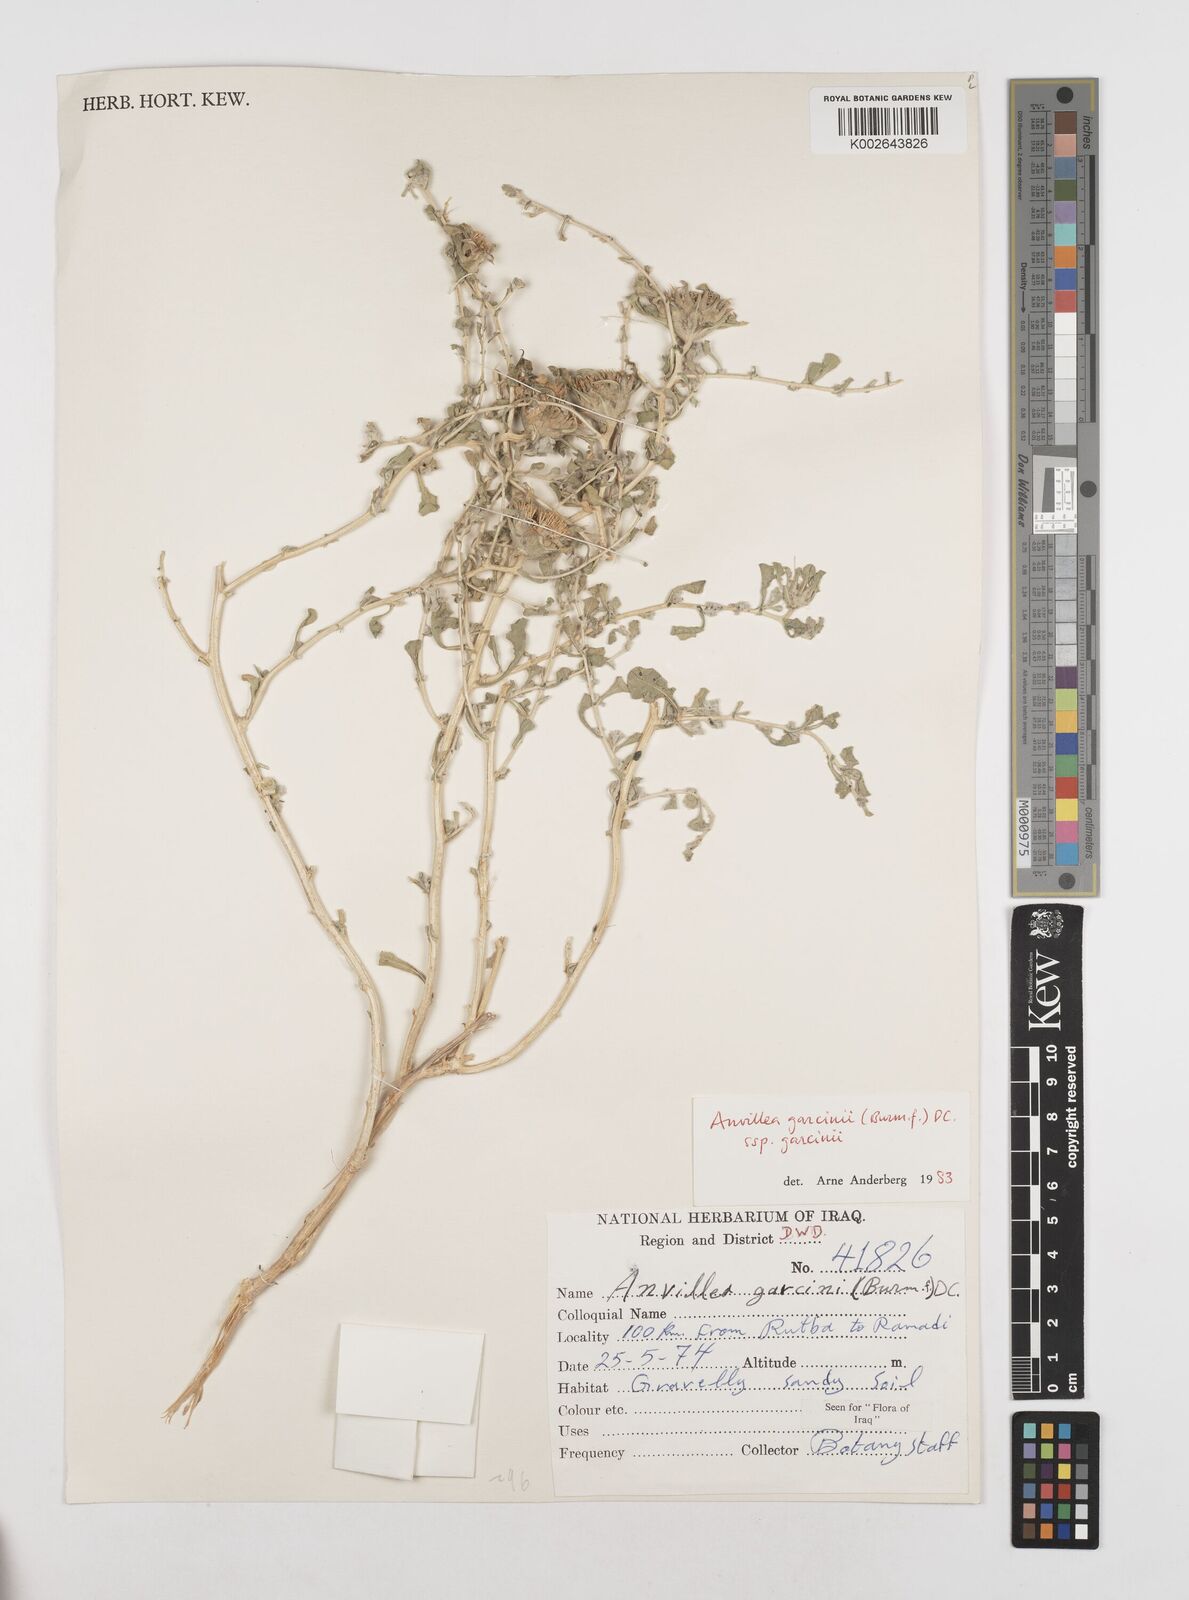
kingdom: Plantae
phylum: Tracheophyta
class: Magnoliopsida
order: Asterales
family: Asteraceae
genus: Anvillea
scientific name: Anvillea garcinii
